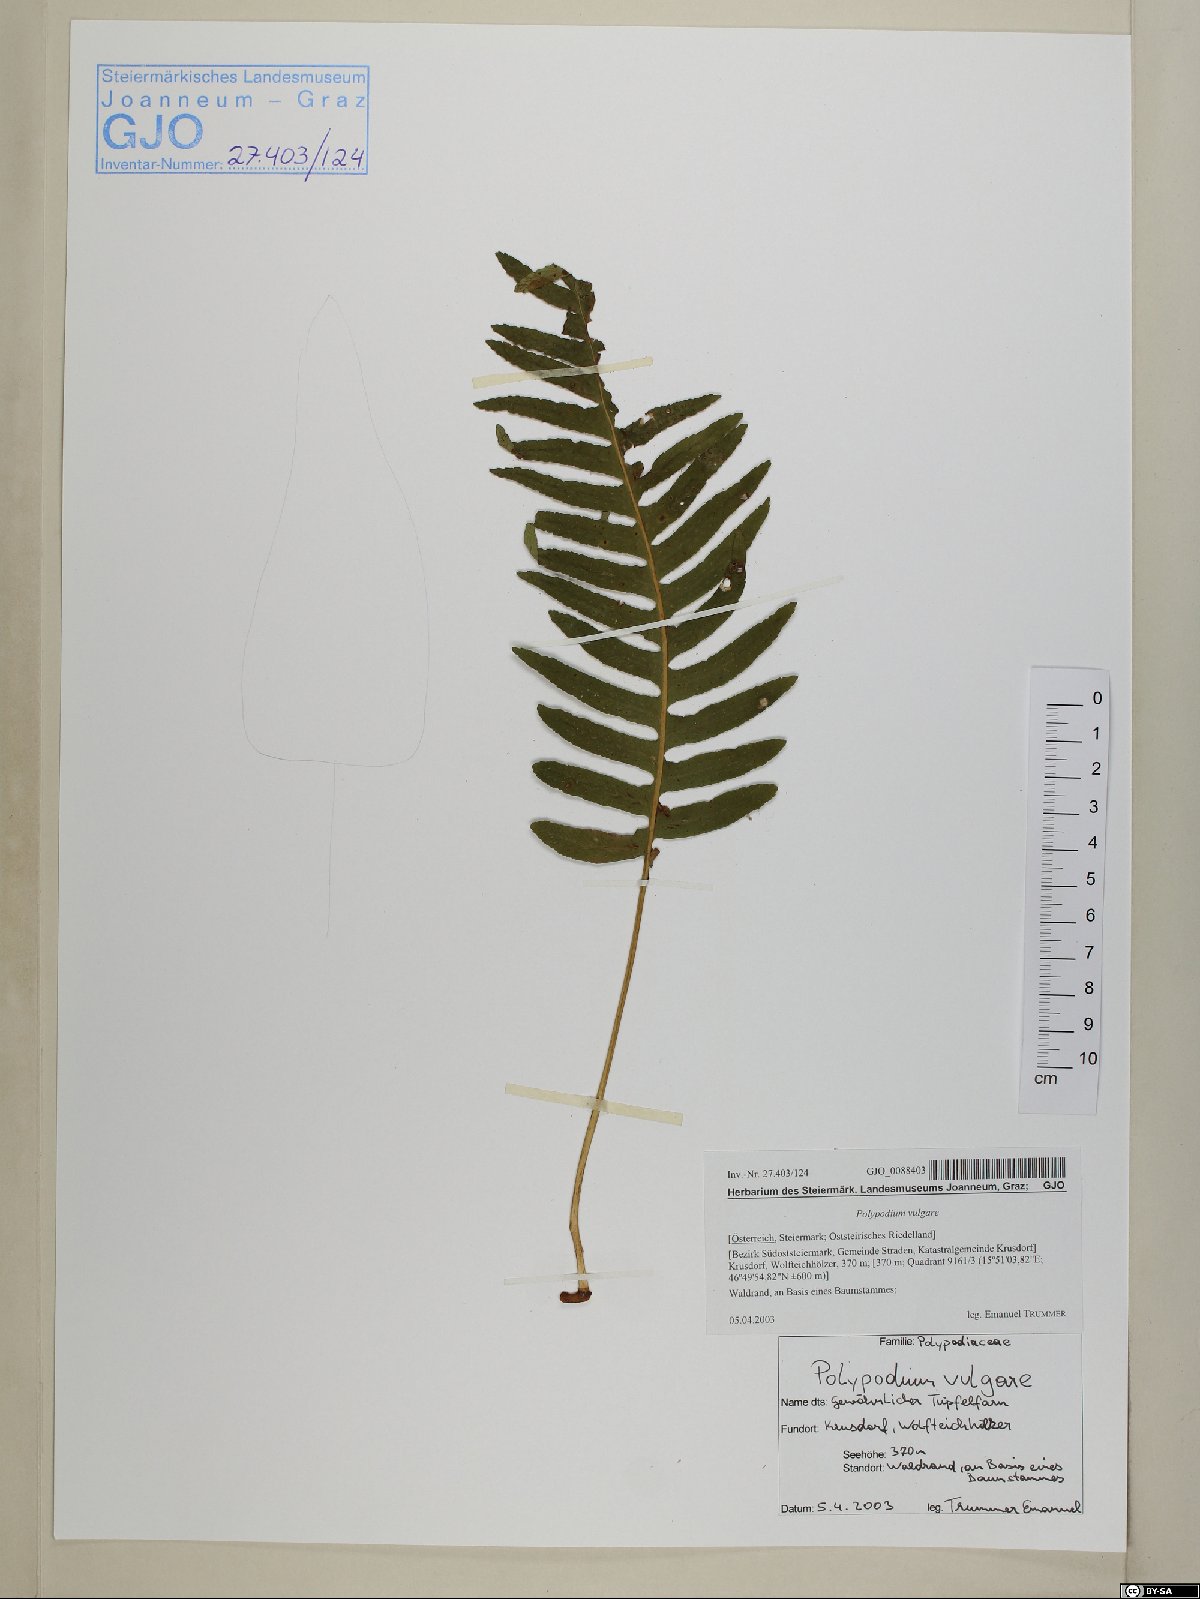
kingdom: Plantae
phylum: Tracheophyta
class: Polypodiopsida
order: Polypodiales
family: Polypodiaceae
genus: Polypodium
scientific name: Polypodium vulgare
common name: Common polypody
